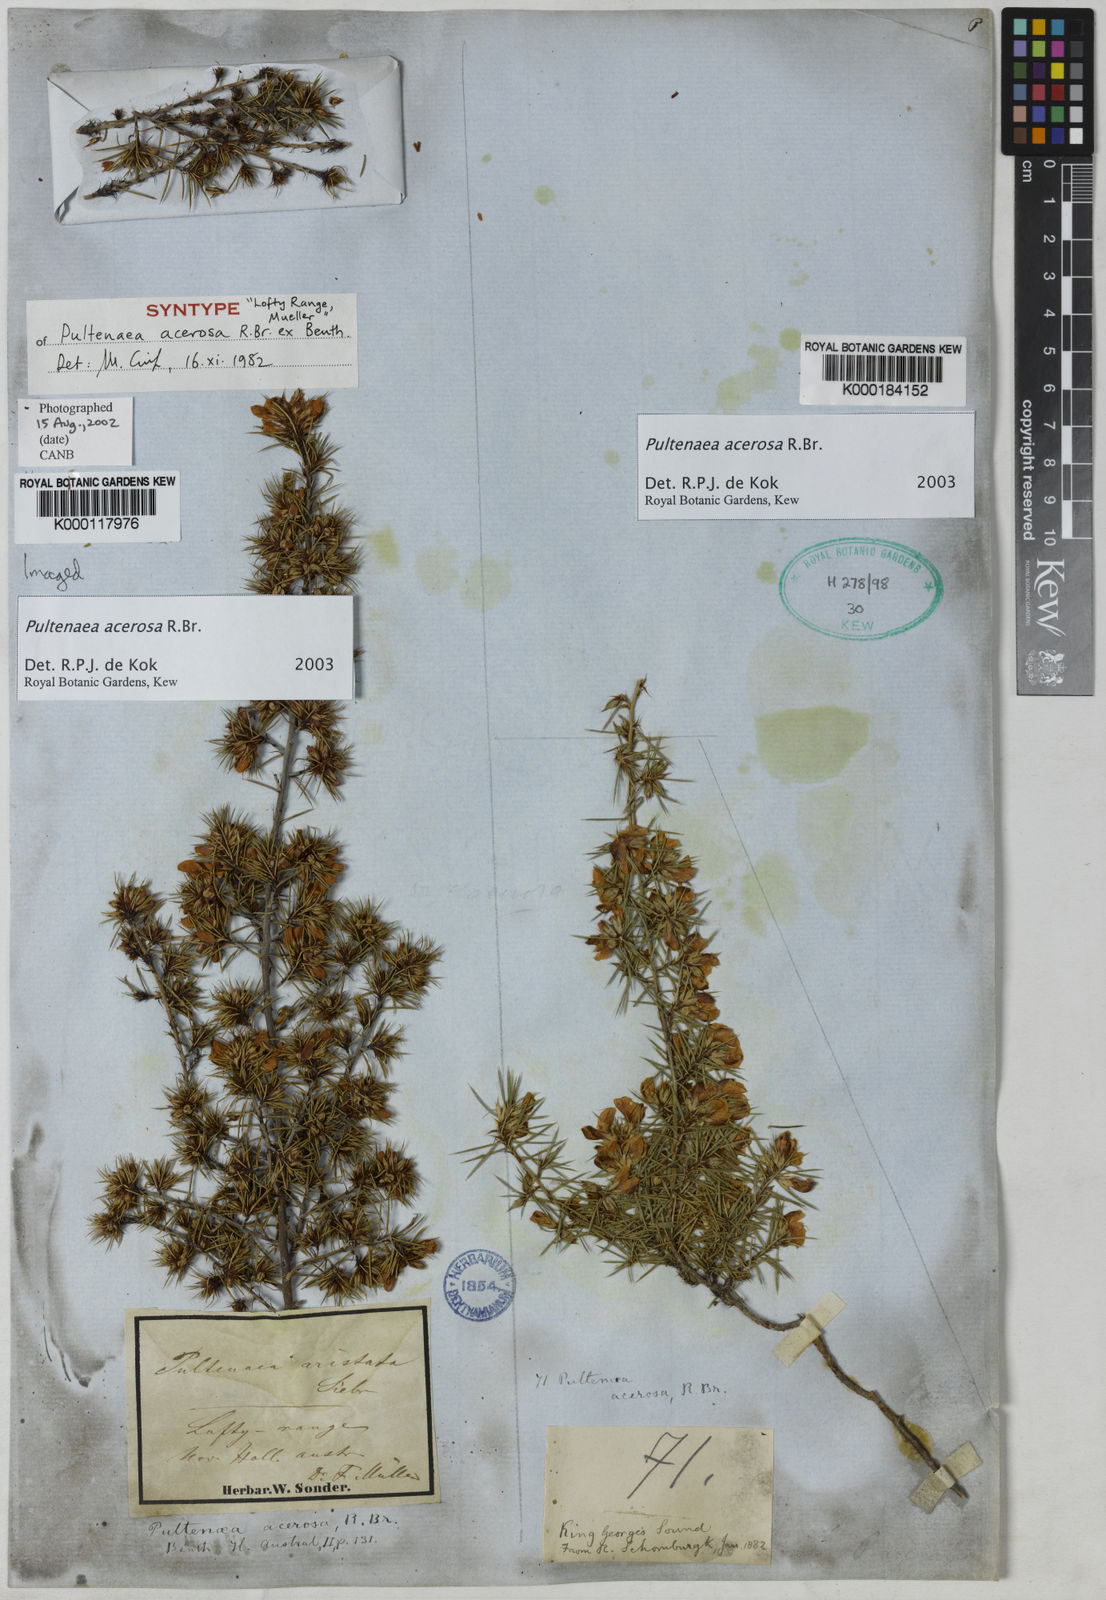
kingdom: Plantae
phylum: Tracheophyta
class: Magnoliopsida
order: Fabales
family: Fabaceae
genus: Pultenaea
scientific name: Pultenaea acerosa
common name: Bristly bush-pea
